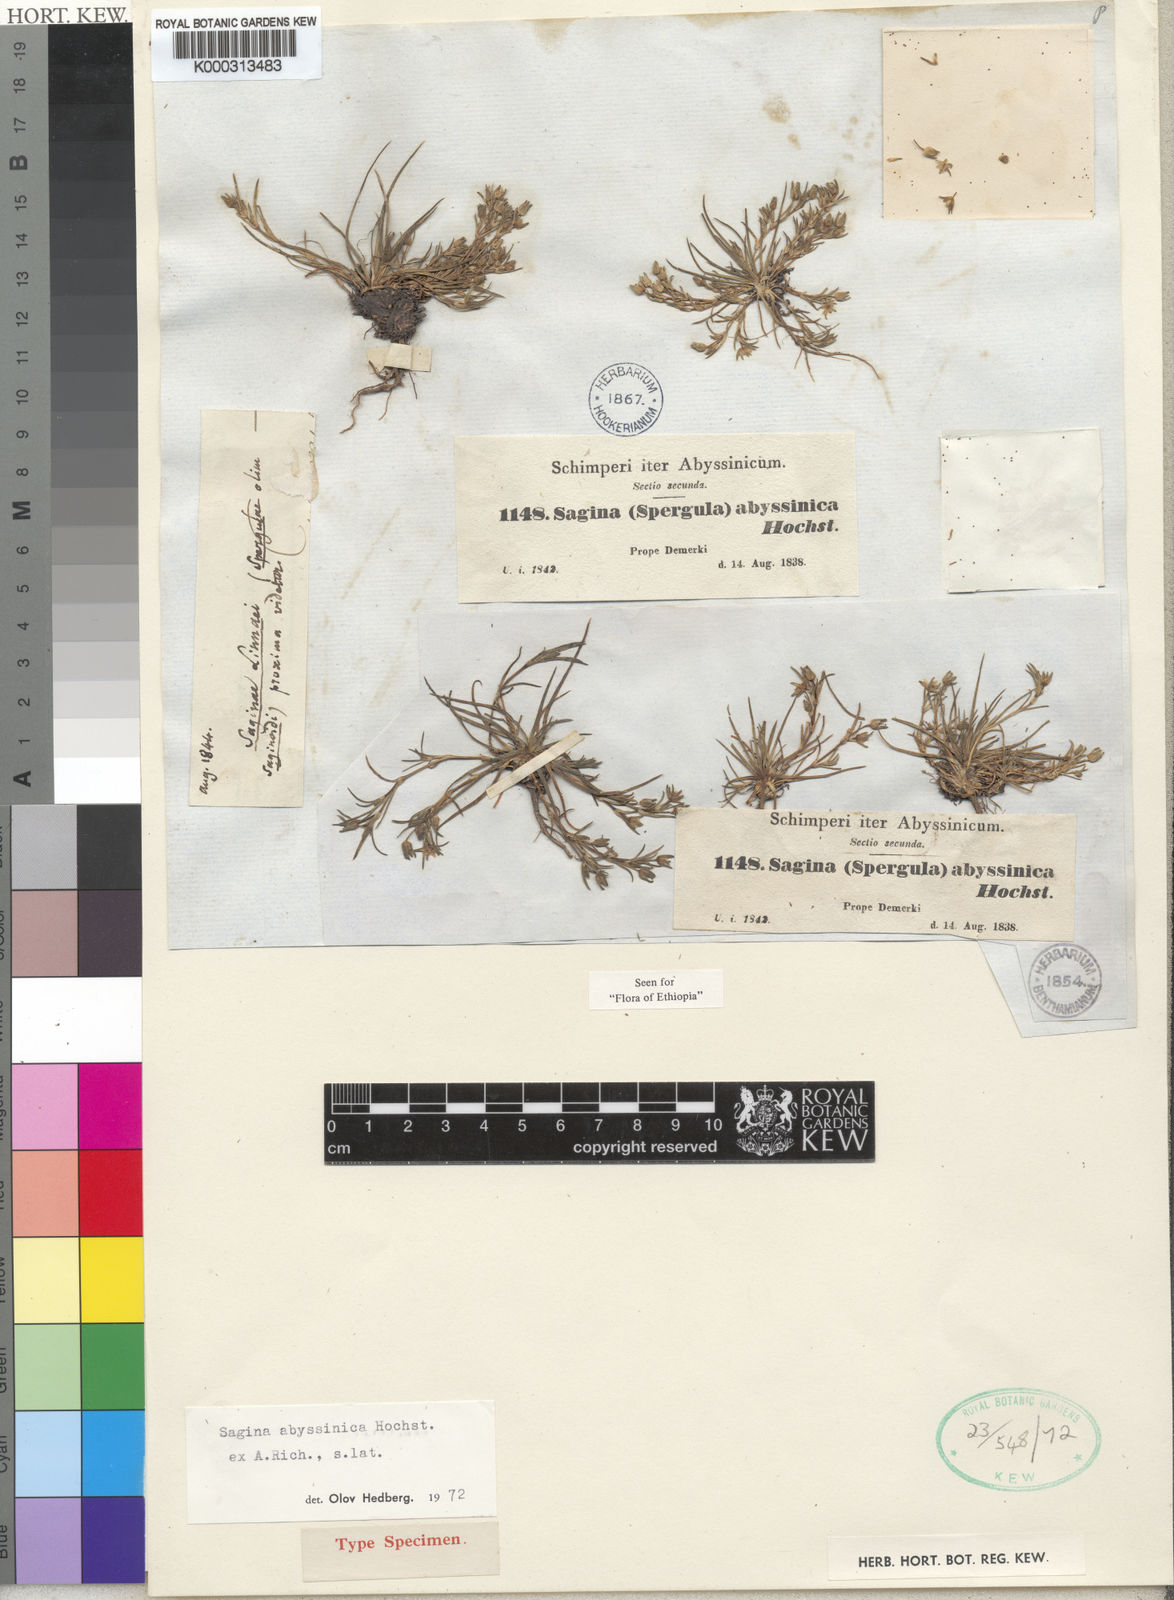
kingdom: Plantae
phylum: Tracheophyta
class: Magnoliopsida
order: Caryophyllales
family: Caryophyllaceae
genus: Sagina
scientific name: Sagina abyssinica
